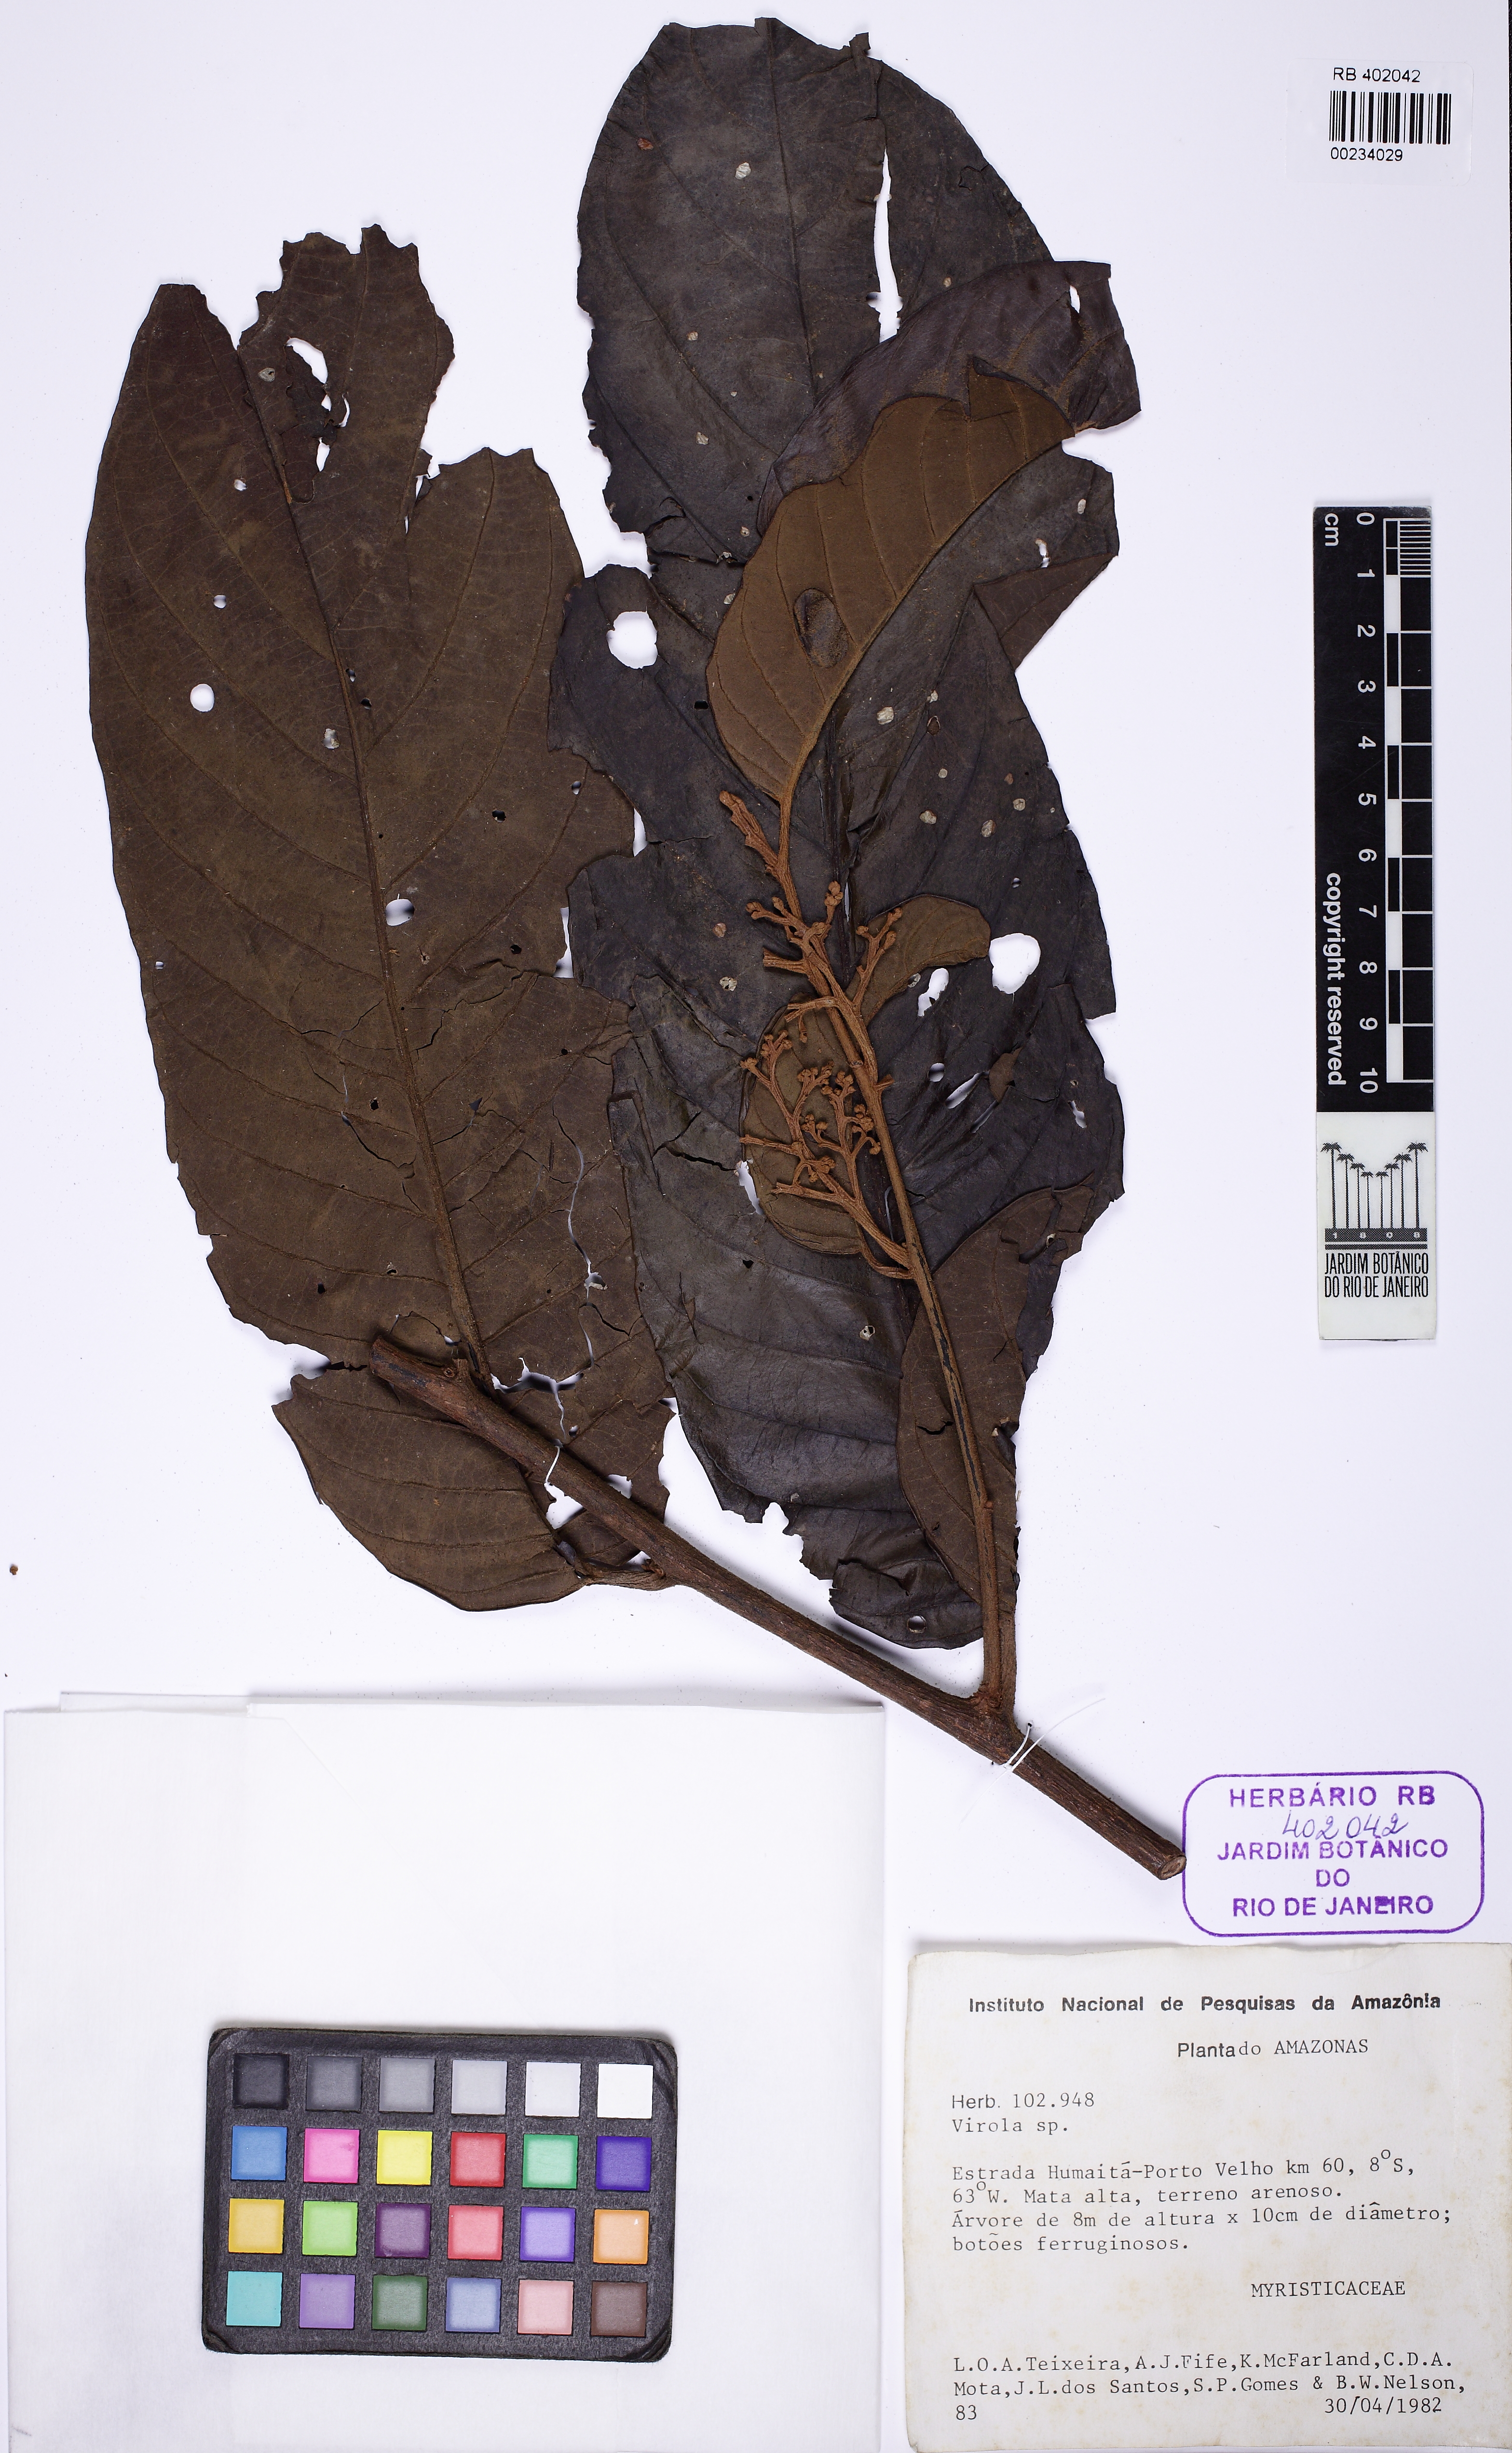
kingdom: Plantae
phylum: Tracheophyta
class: Magnoliopsida
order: Magnoliales
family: Myristicaceae
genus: Virola
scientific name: Virola
